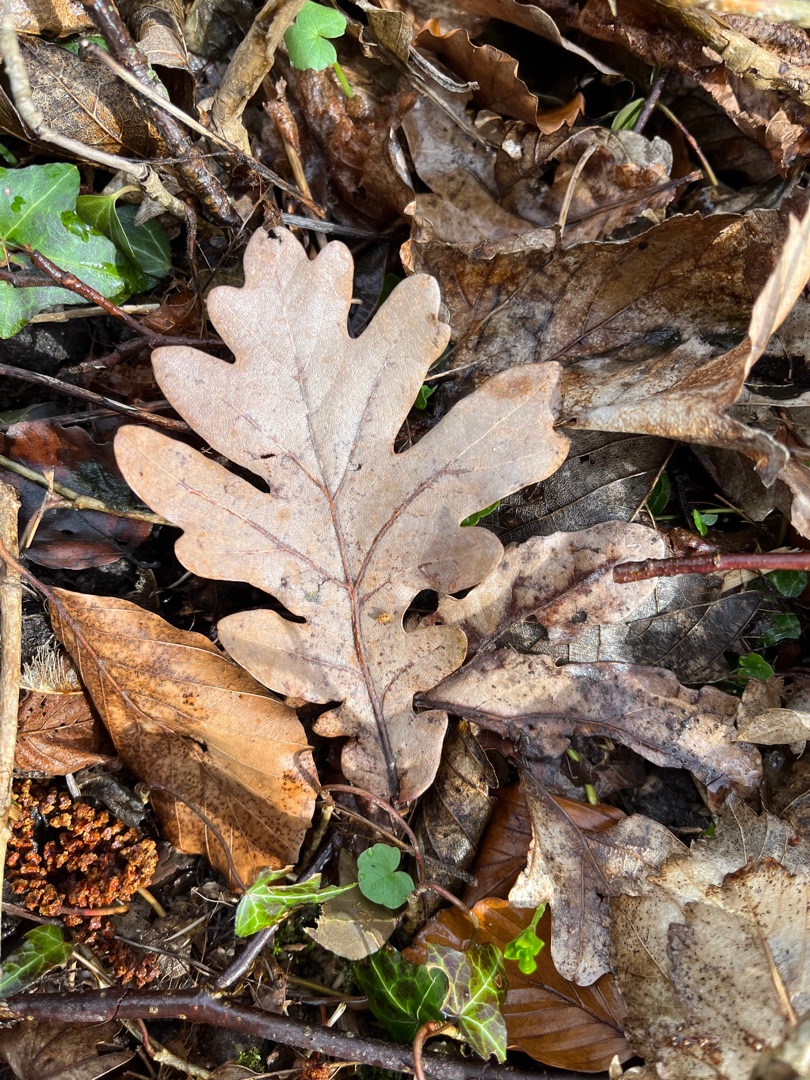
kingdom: Plantae
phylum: Tracheophyta
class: Magnoliopsida
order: Fagales
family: Fagaceae
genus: Quercus
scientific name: Quercus robur
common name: Stilk-eg/almindelig eg
